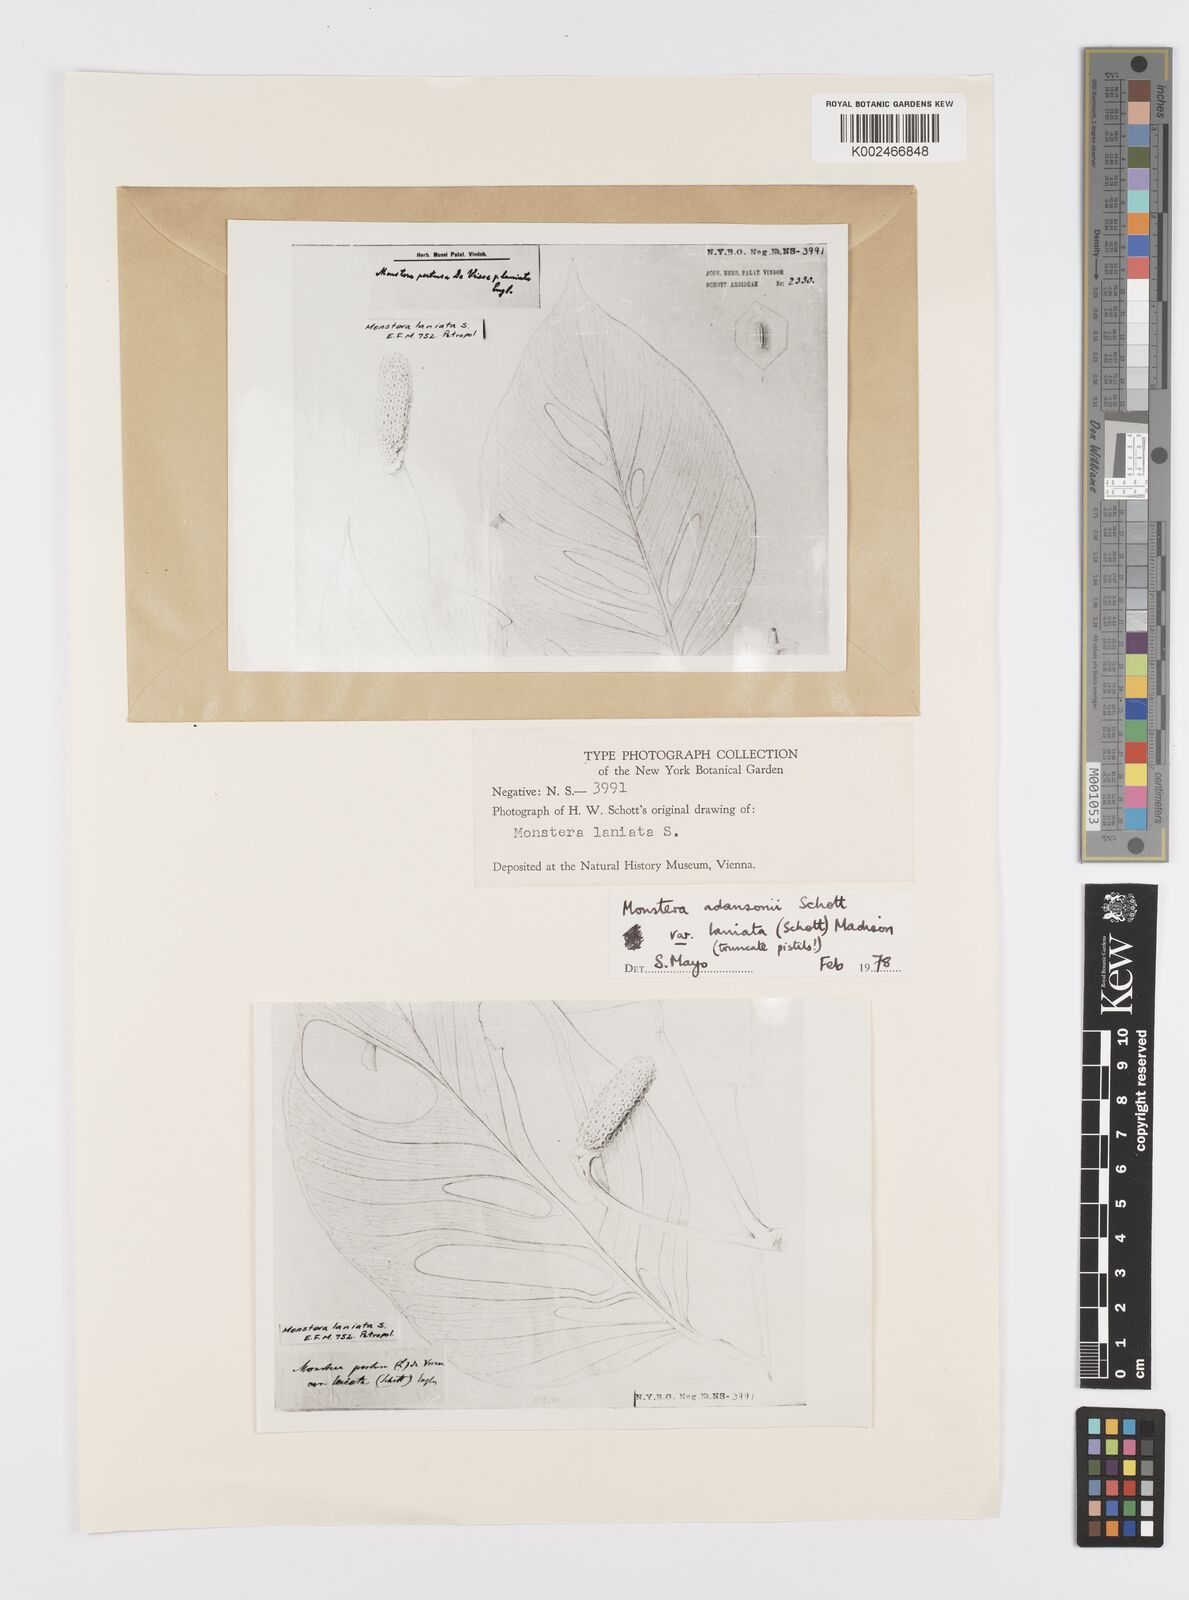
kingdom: Plantae
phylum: Tracheophyta
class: Liliopsida
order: Alismatales
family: Araceae
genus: Monstera
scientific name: Monstera adansonii
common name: Tarovine
